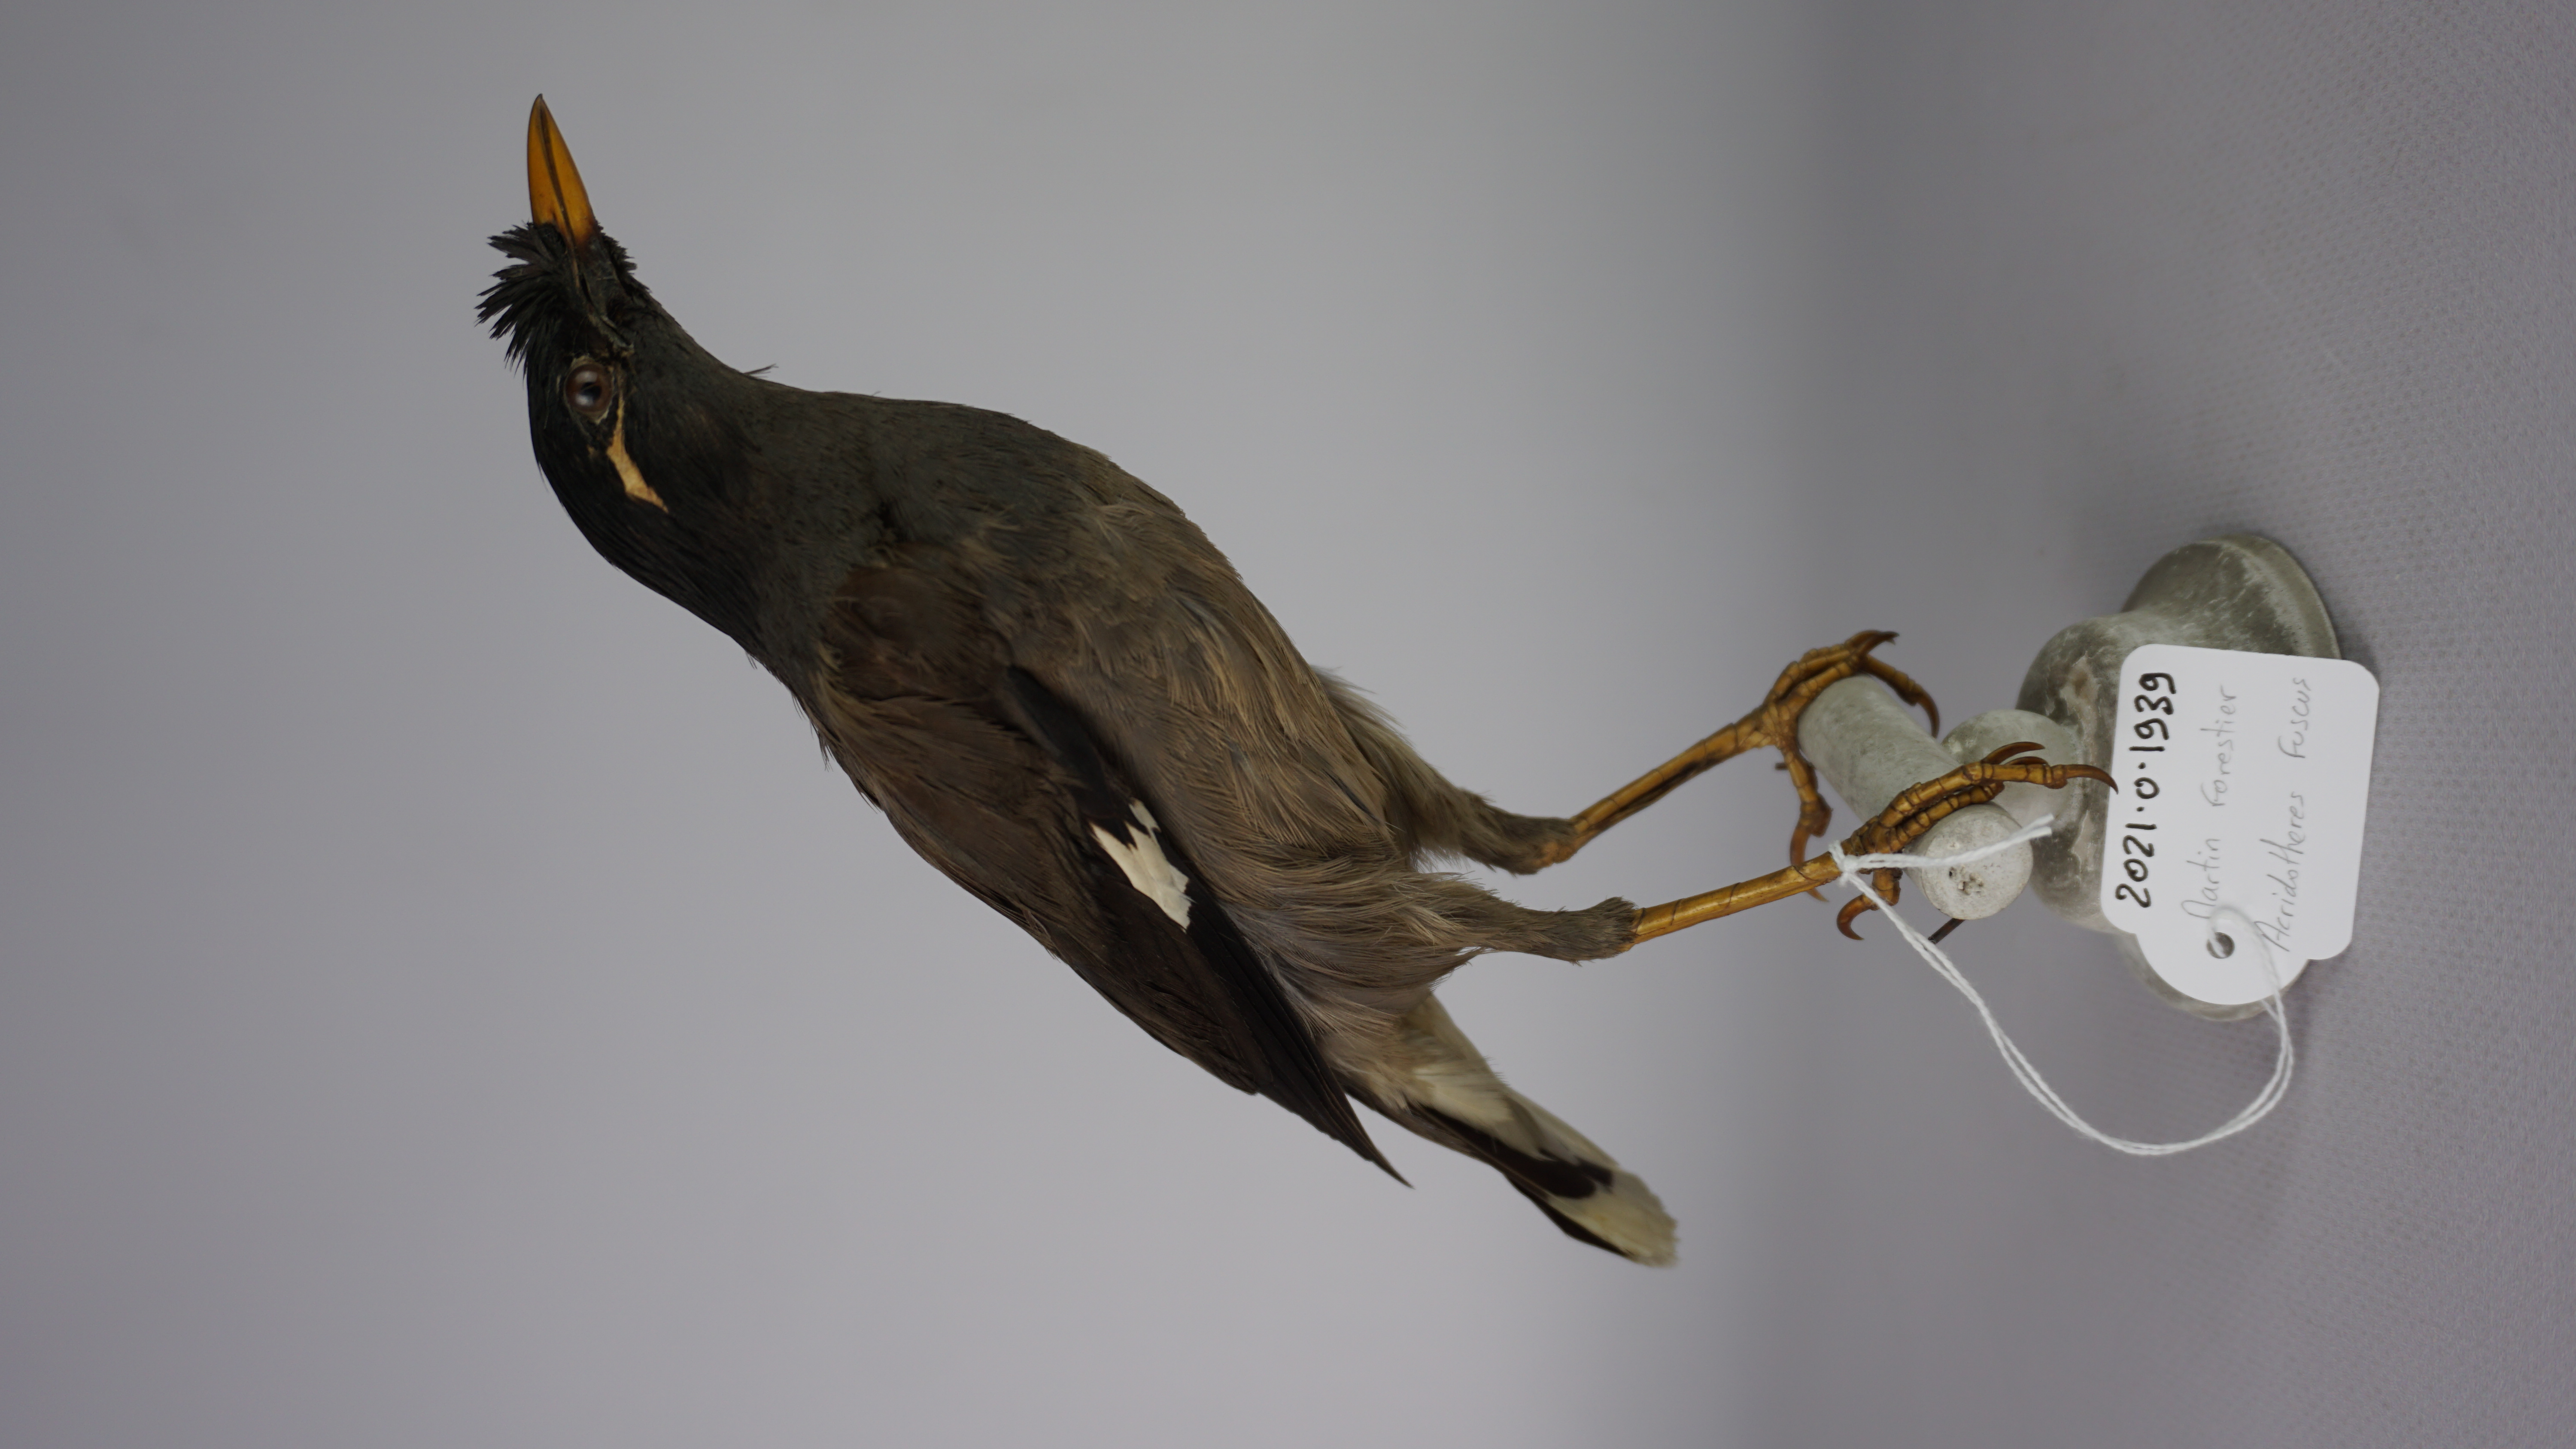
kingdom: Animalia
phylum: Chordata
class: Aves
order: Passeriformes
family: Sturnidae
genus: Acridotheres
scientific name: Acridotheres fuscus
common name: Jungle myna
